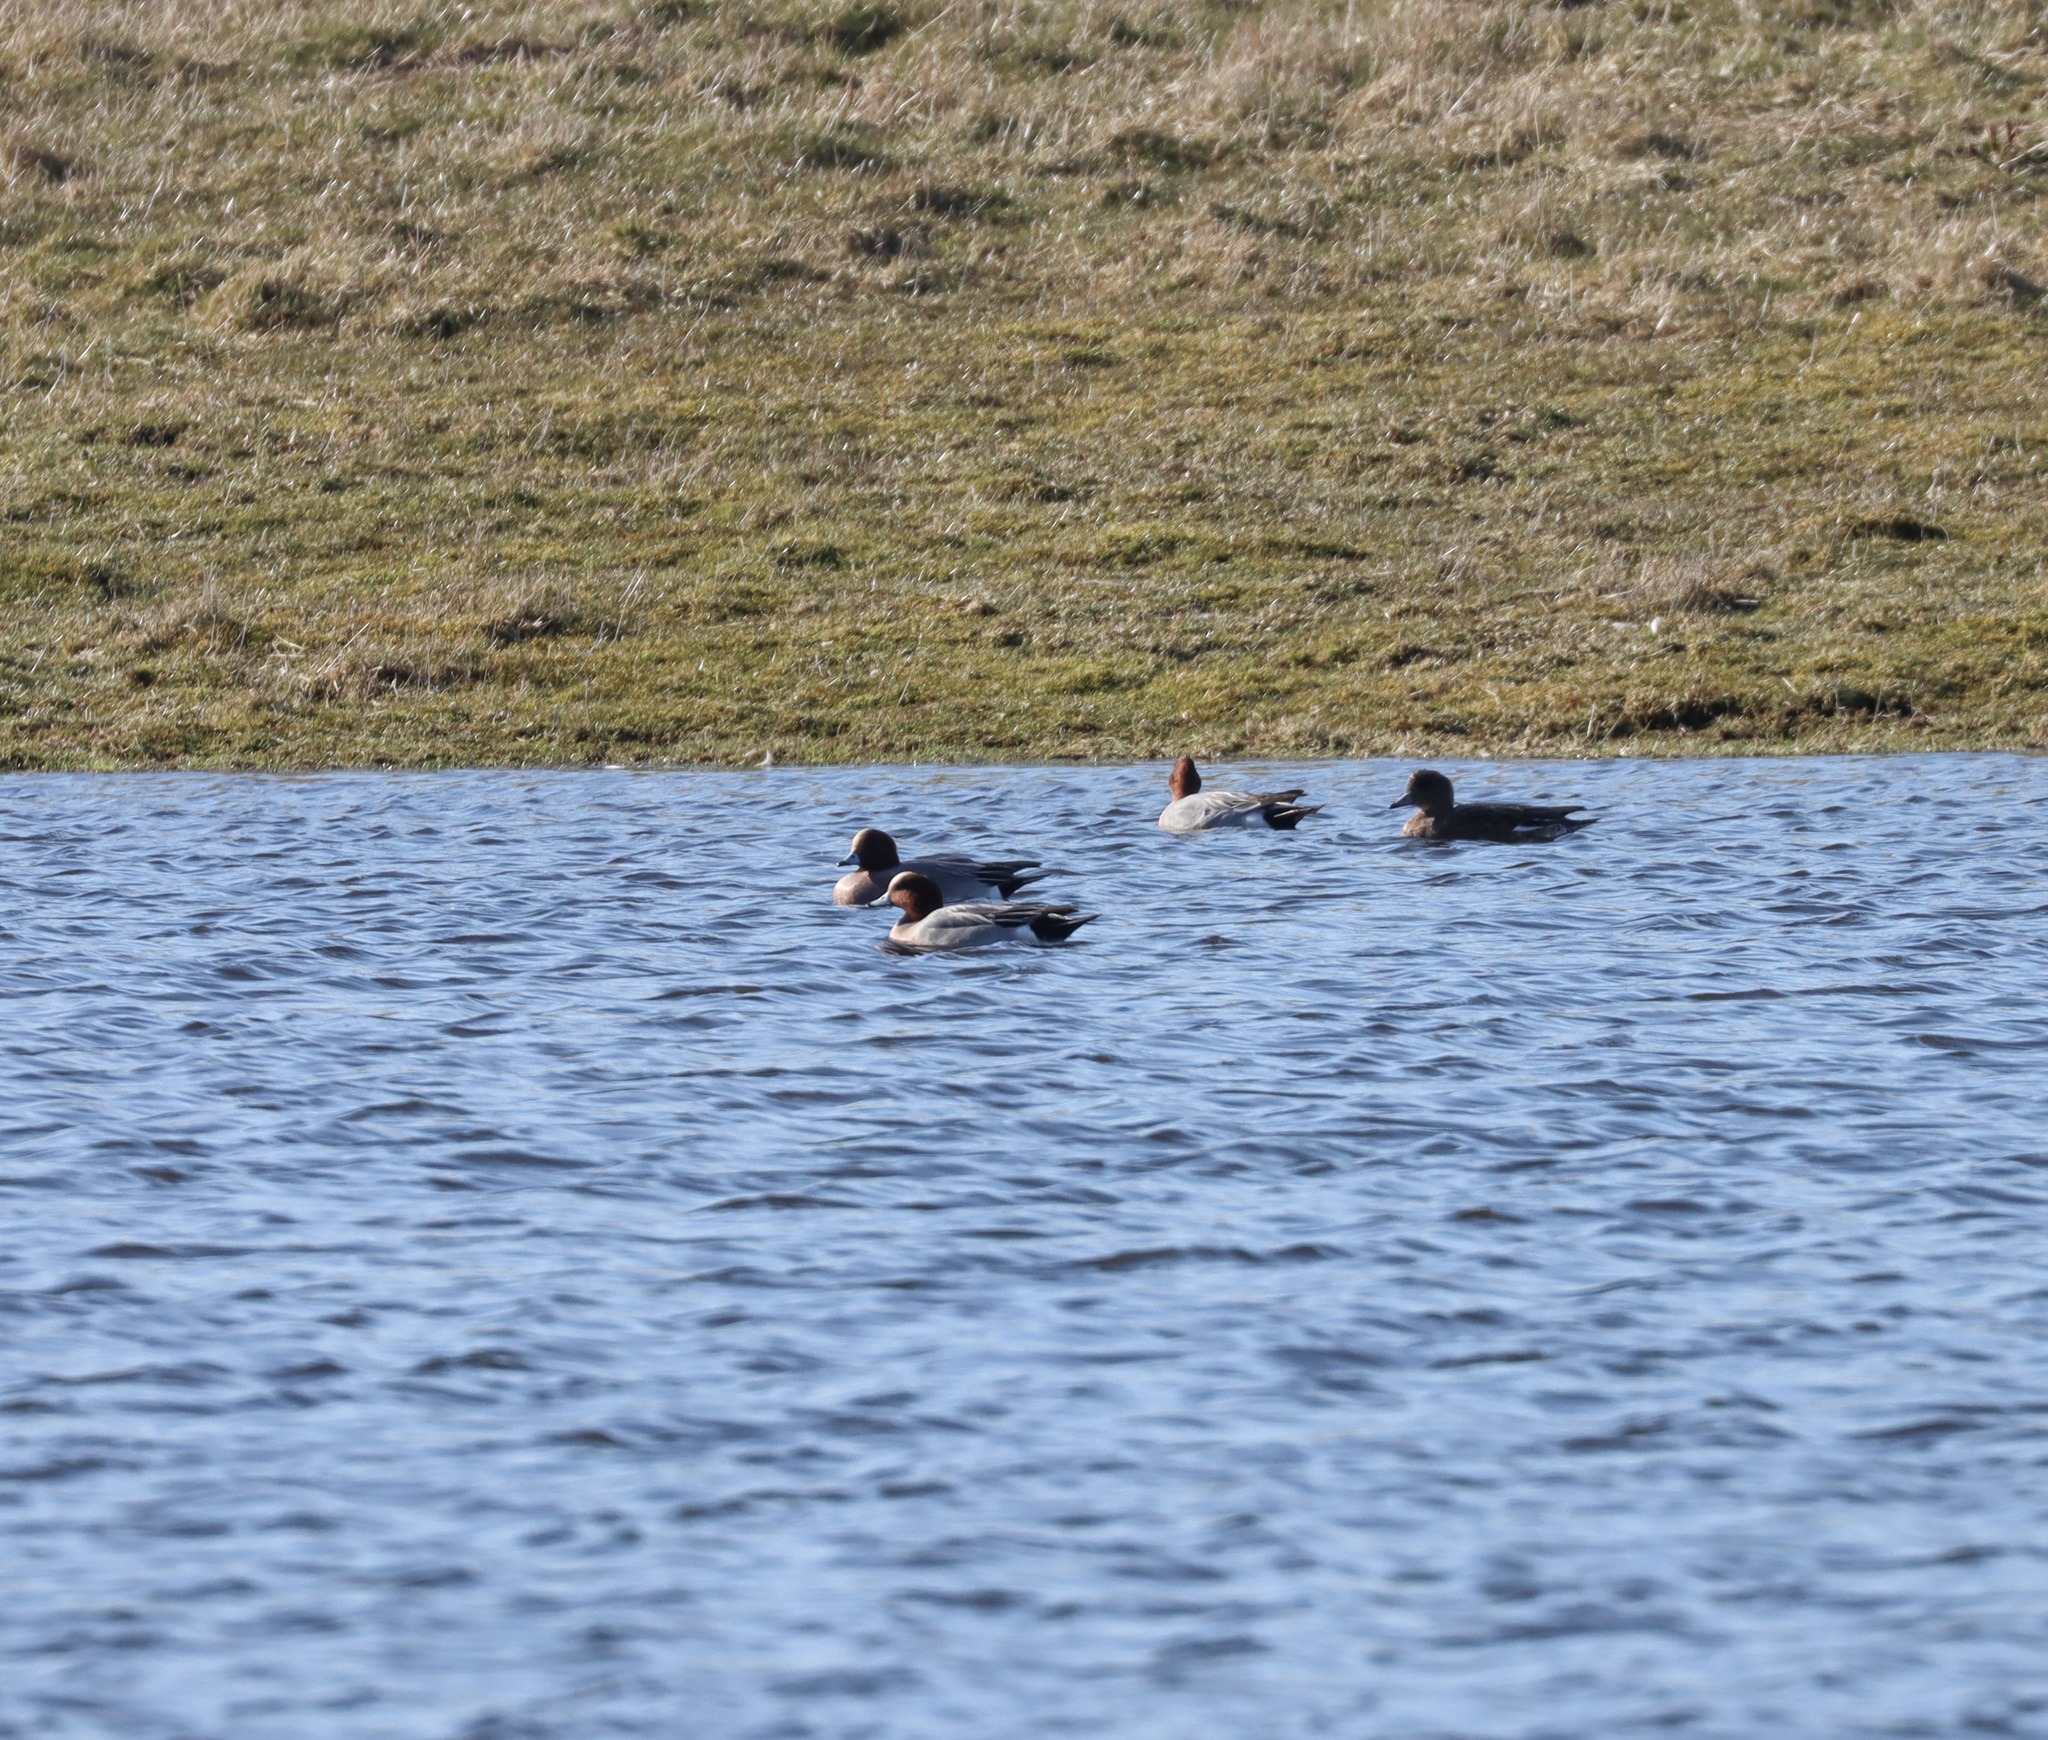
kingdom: Animalia
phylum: Chordata
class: Aves
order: Anseriformes
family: Anatidae
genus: Mareca
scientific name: Mareca penelope
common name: Pibeand
